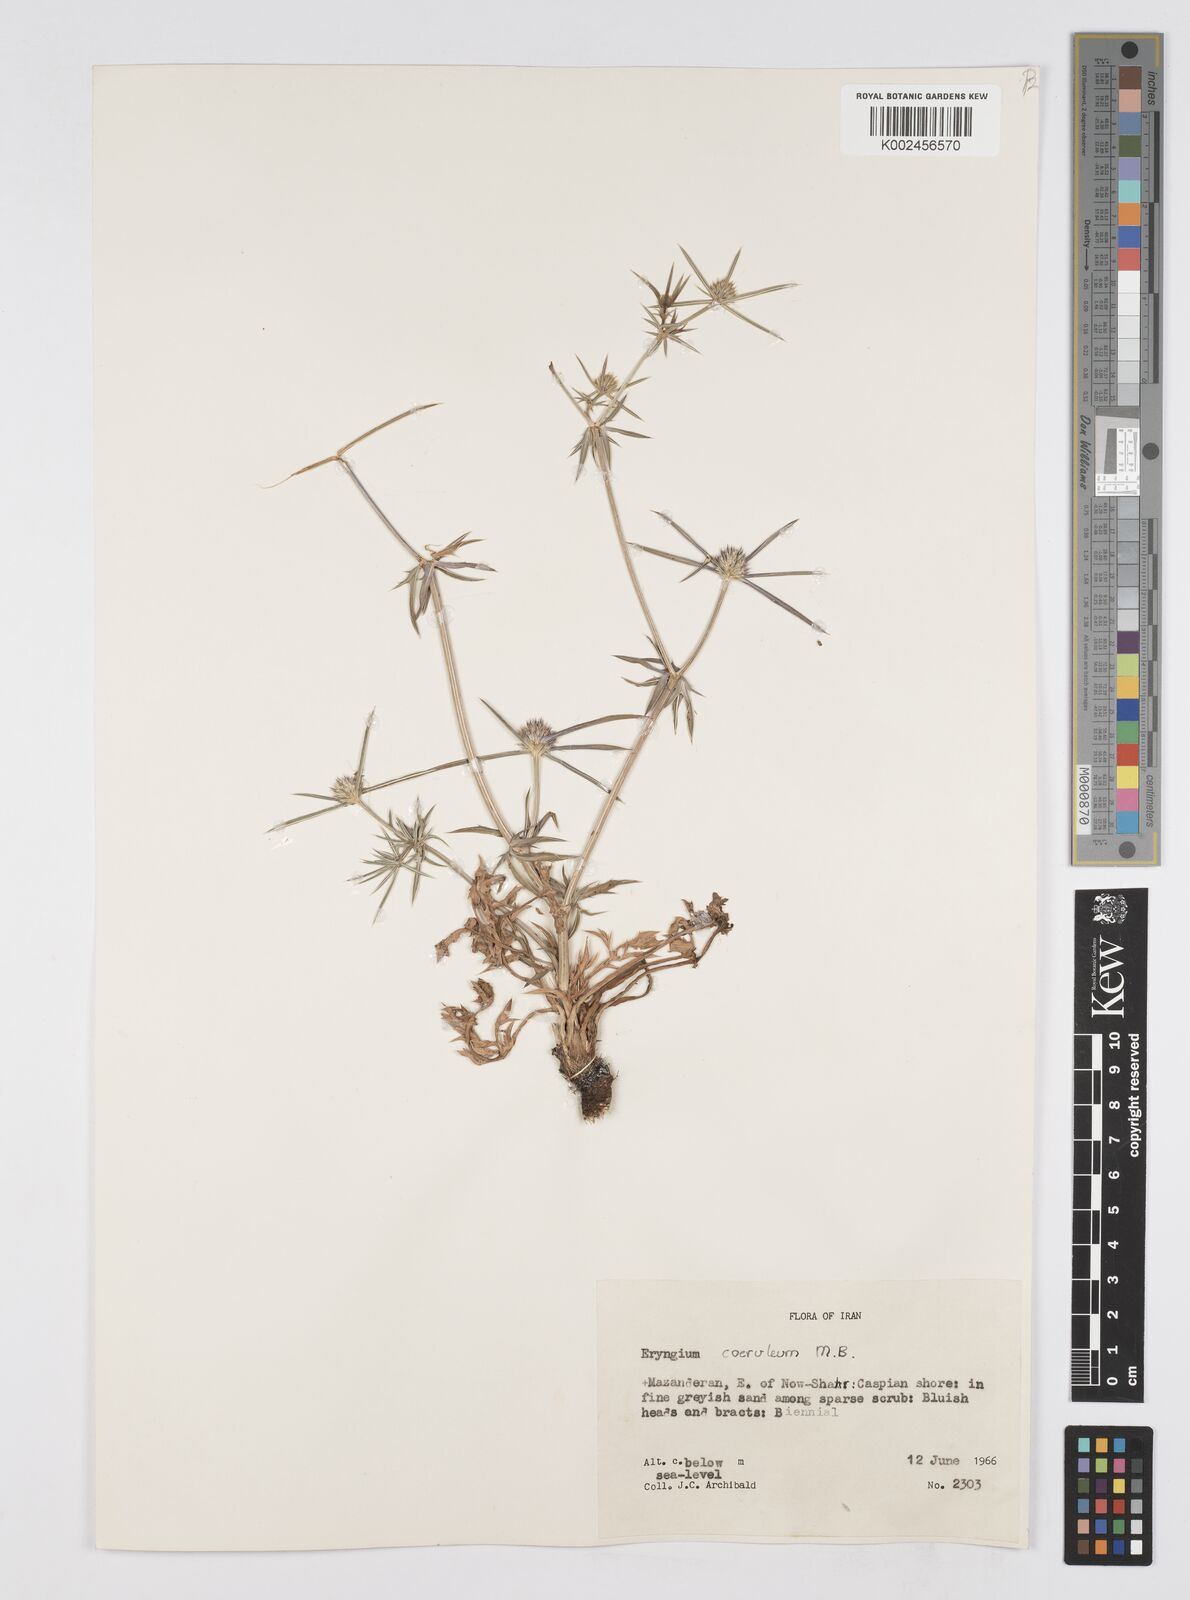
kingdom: Plantae
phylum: Tracheophyta
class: Magnoliopsida
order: Apiales
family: Apiaceae
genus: Eryngium
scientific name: Eryngium caeruleum
